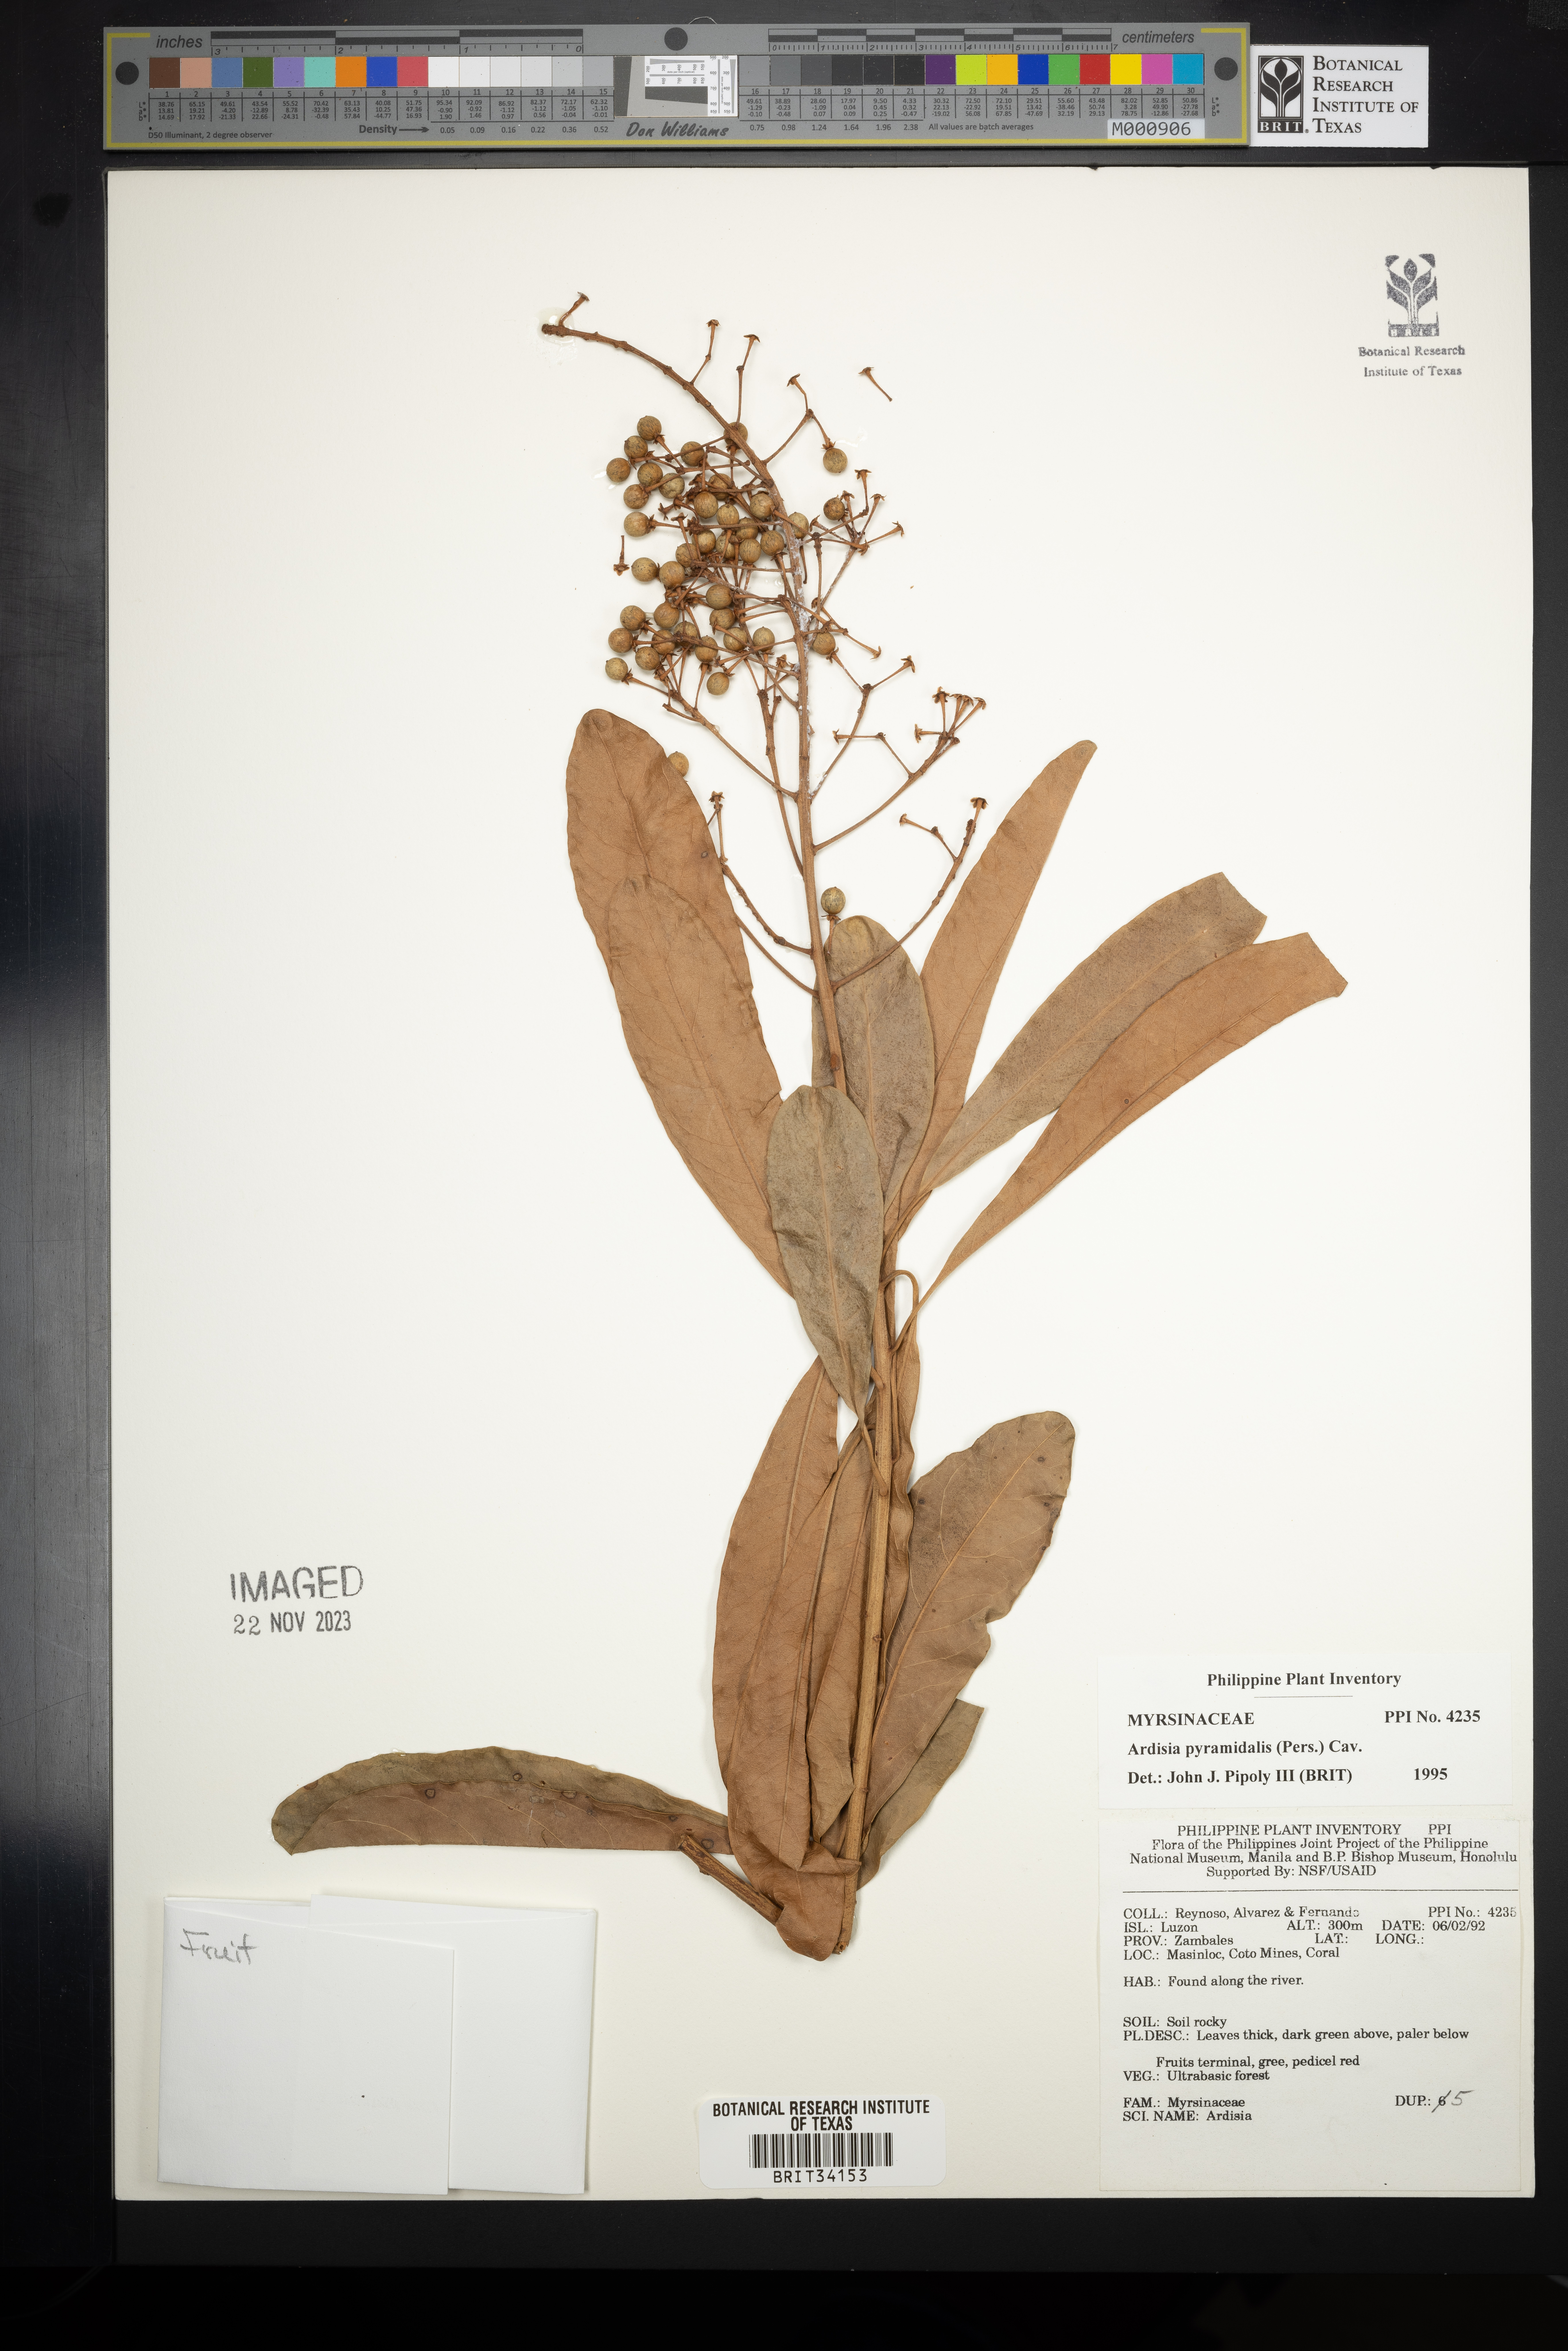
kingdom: Plantae
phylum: Tracheophyta
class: Magnoliopsida
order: Ericales
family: Primulaceae
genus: Ardisia
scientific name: Ardisia pyramidalis
